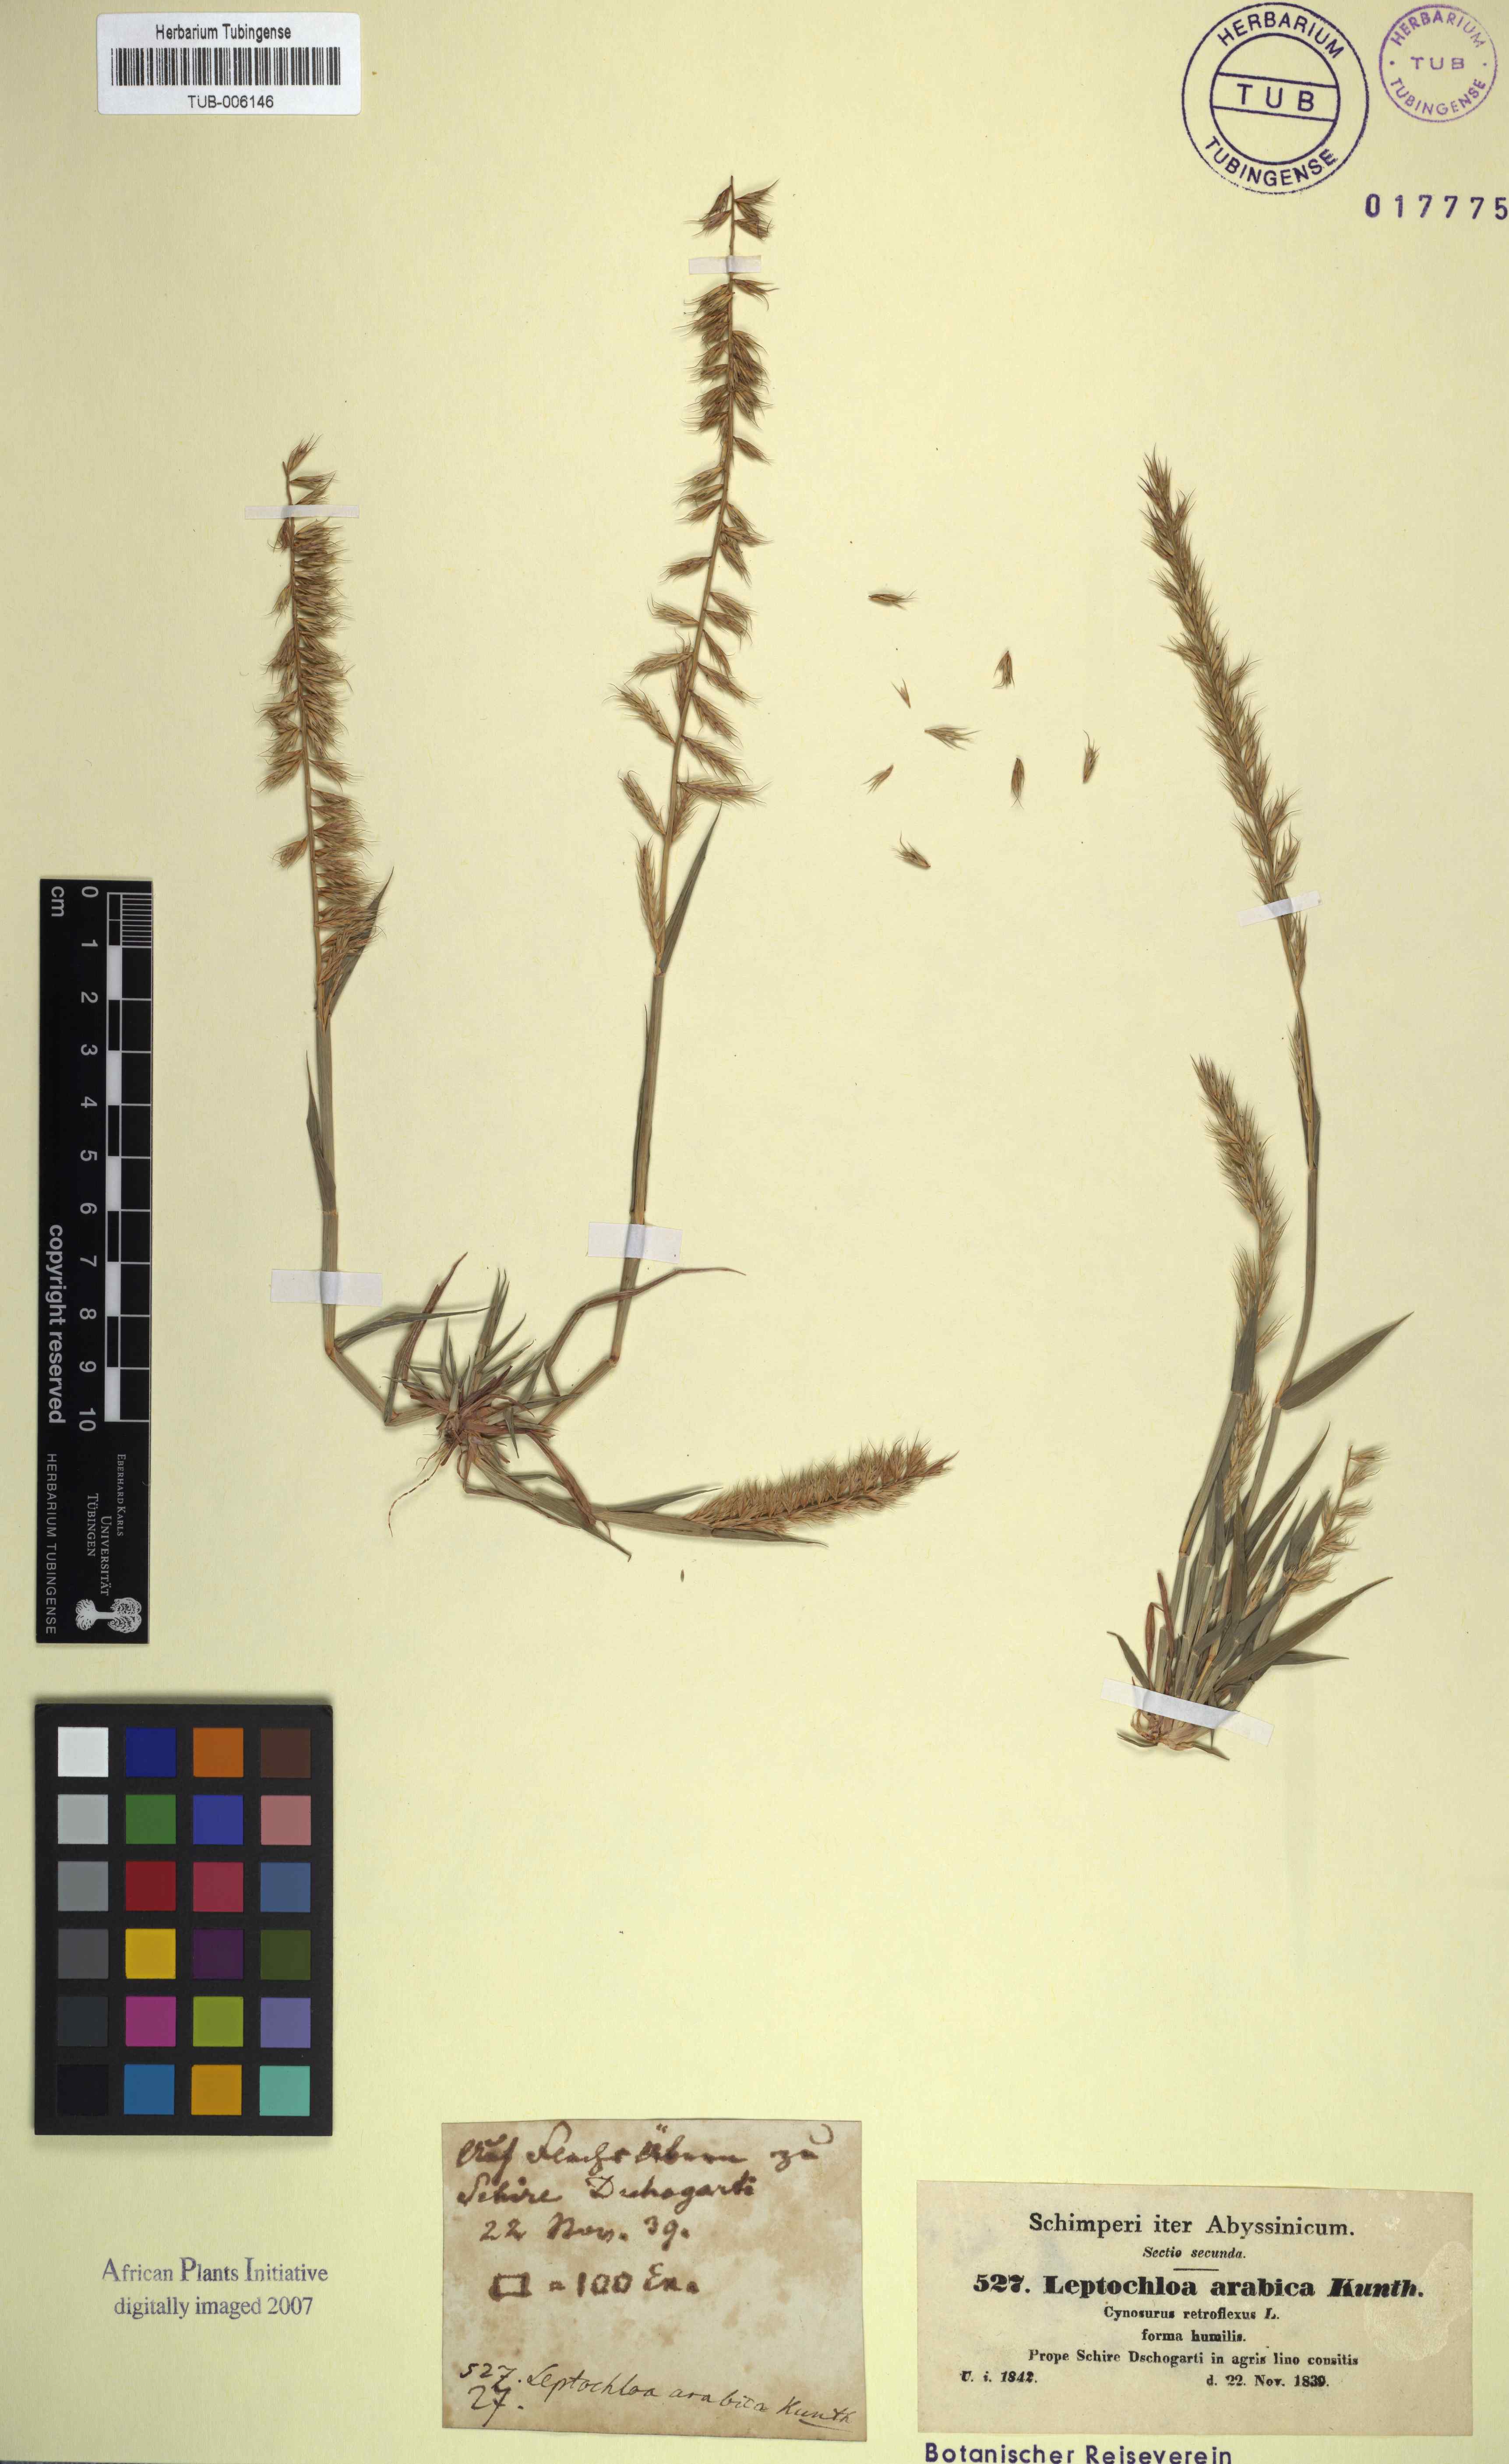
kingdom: Plantae
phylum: Tracheophyta
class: Liliopsida
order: Poales
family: Poaceae
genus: Dinebra
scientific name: Dinebra retroflexa
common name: Viper grass
